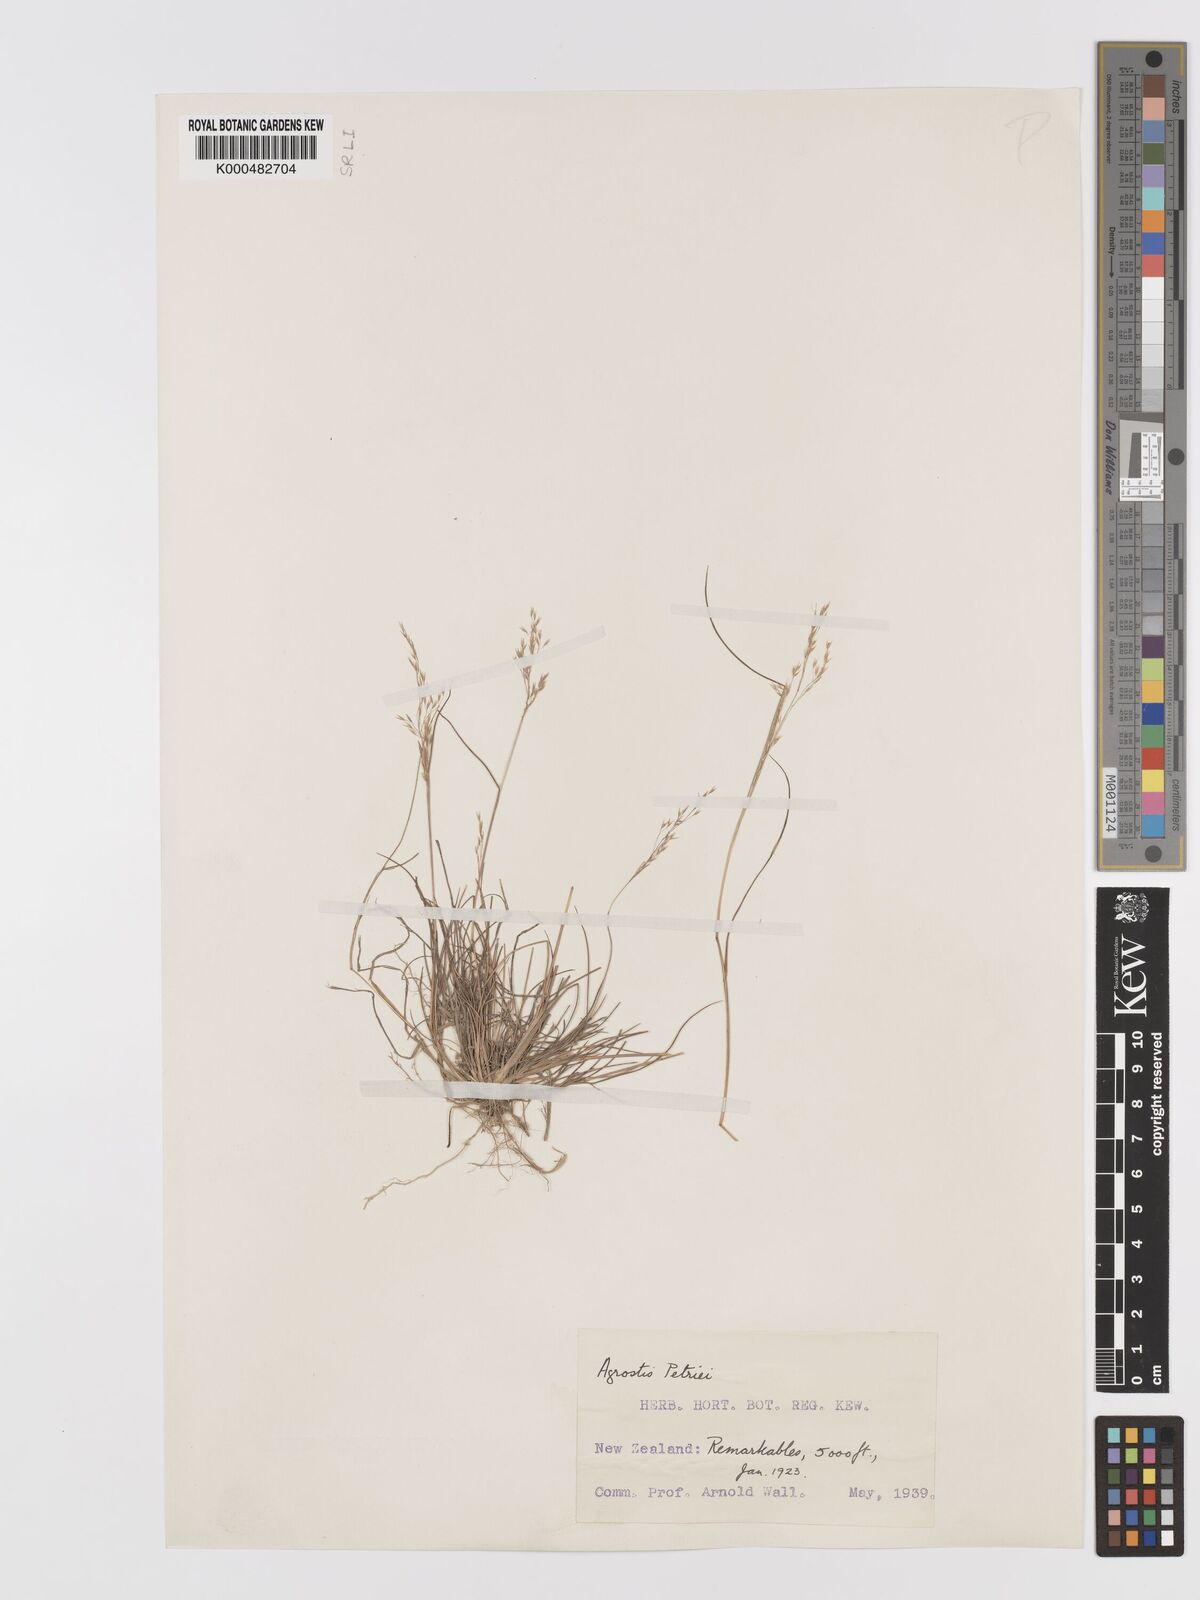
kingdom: Plantae
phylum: Tracheophyta
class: Liliopsida
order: Poales
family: Poaceae
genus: Agrostis
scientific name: Agrostis petriei
